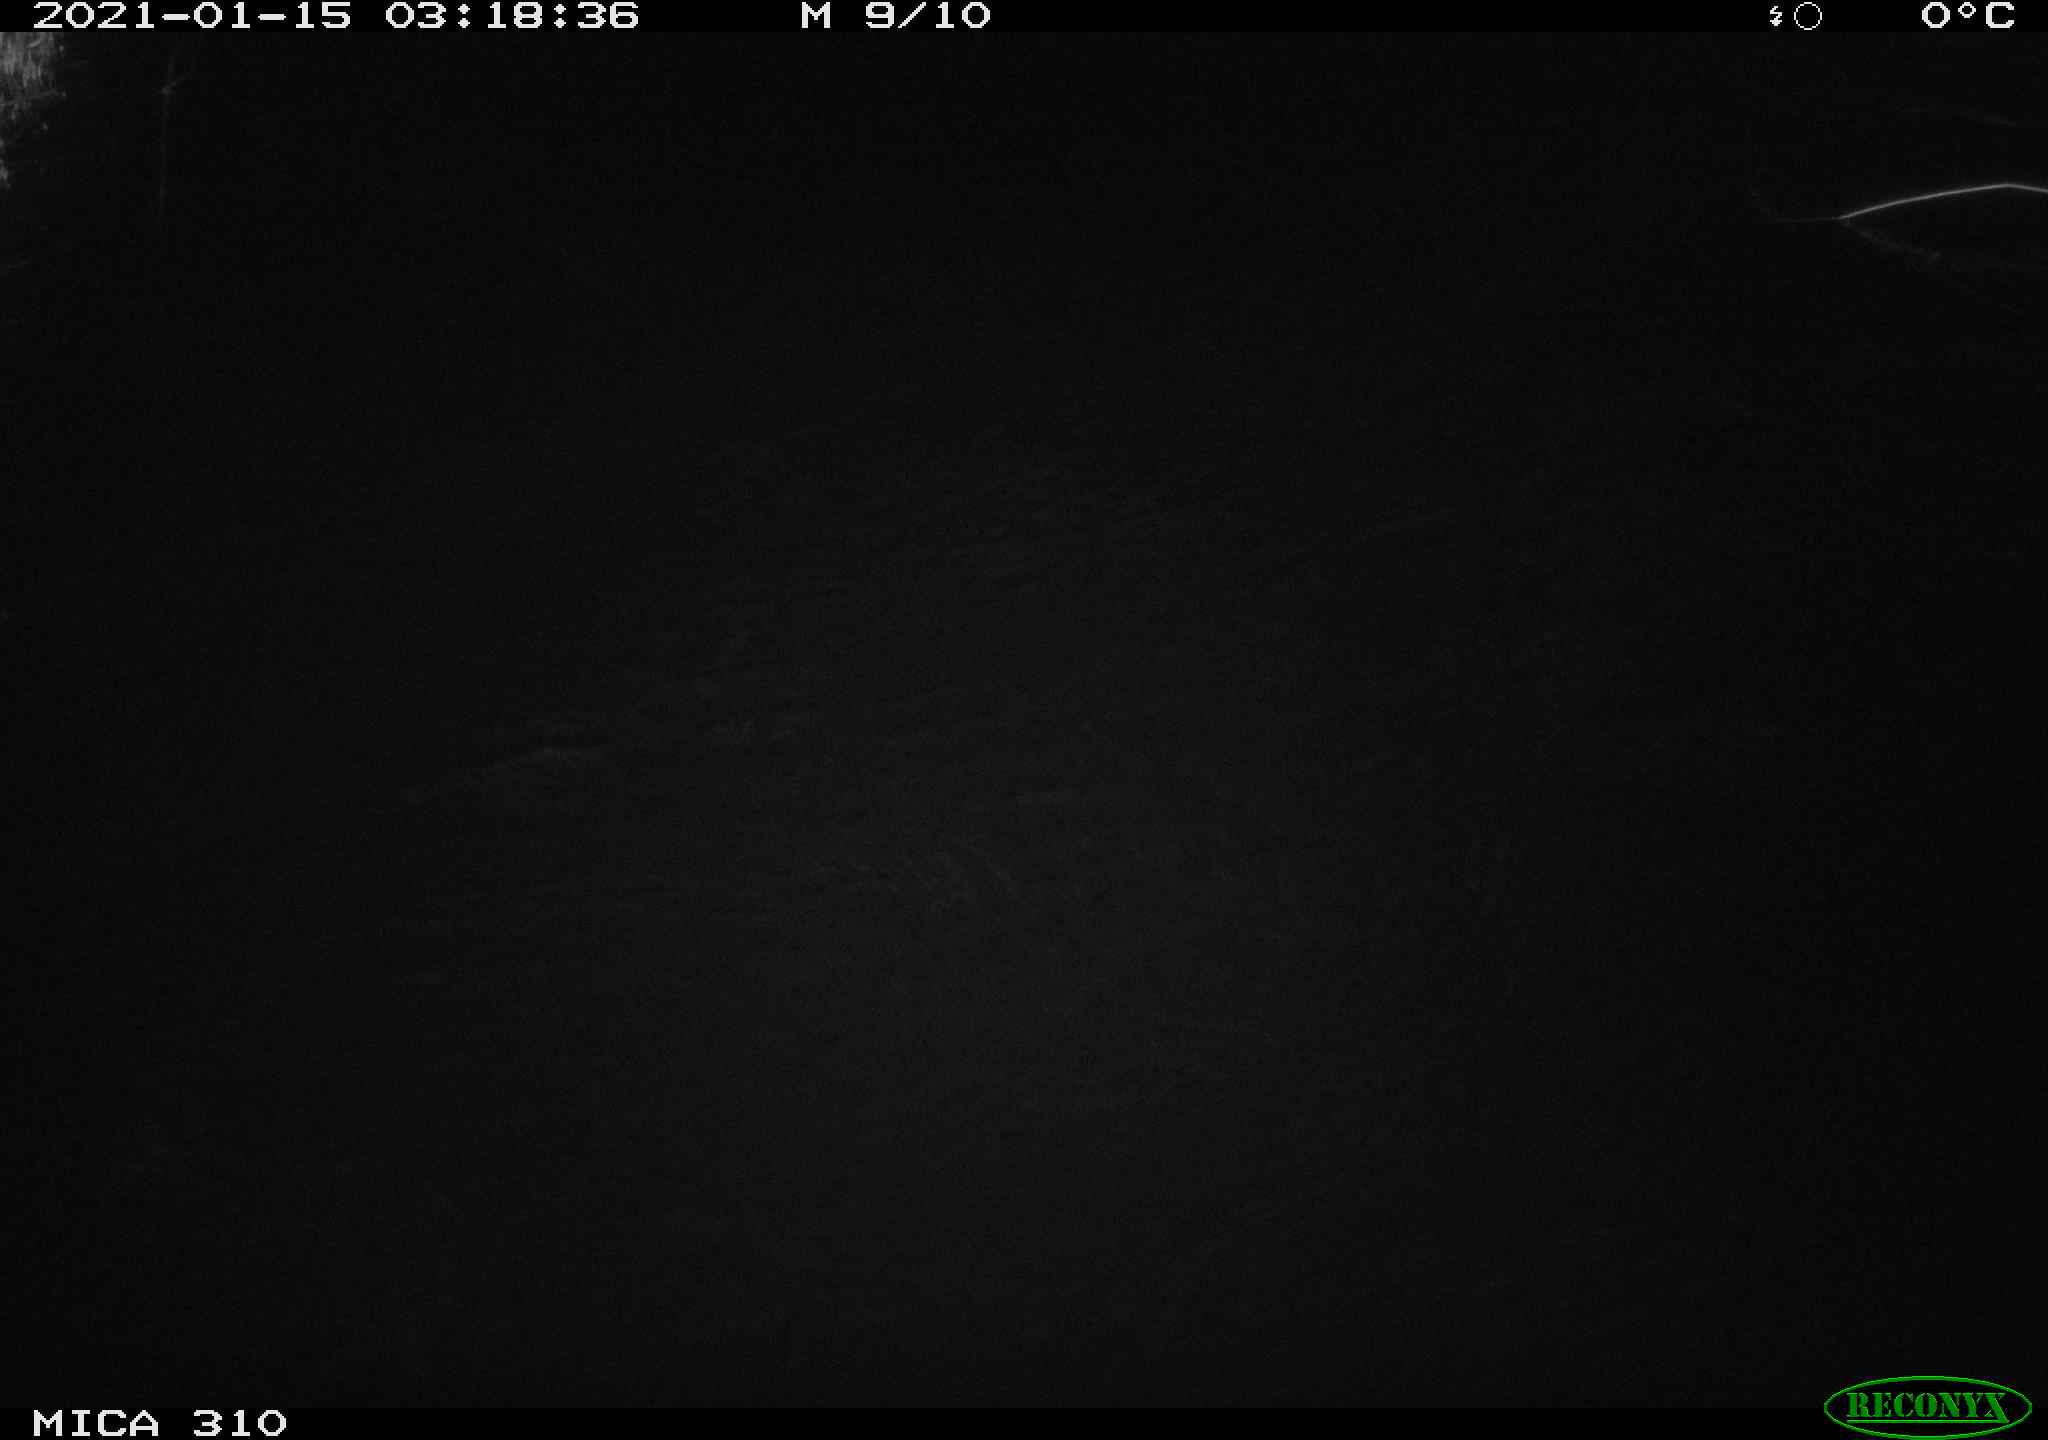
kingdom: Animalia
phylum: Chordata
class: Mammalia
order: Rodentia
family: Muridae
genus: Rattus
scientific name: Rattus norvegicus
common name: Brown rat
